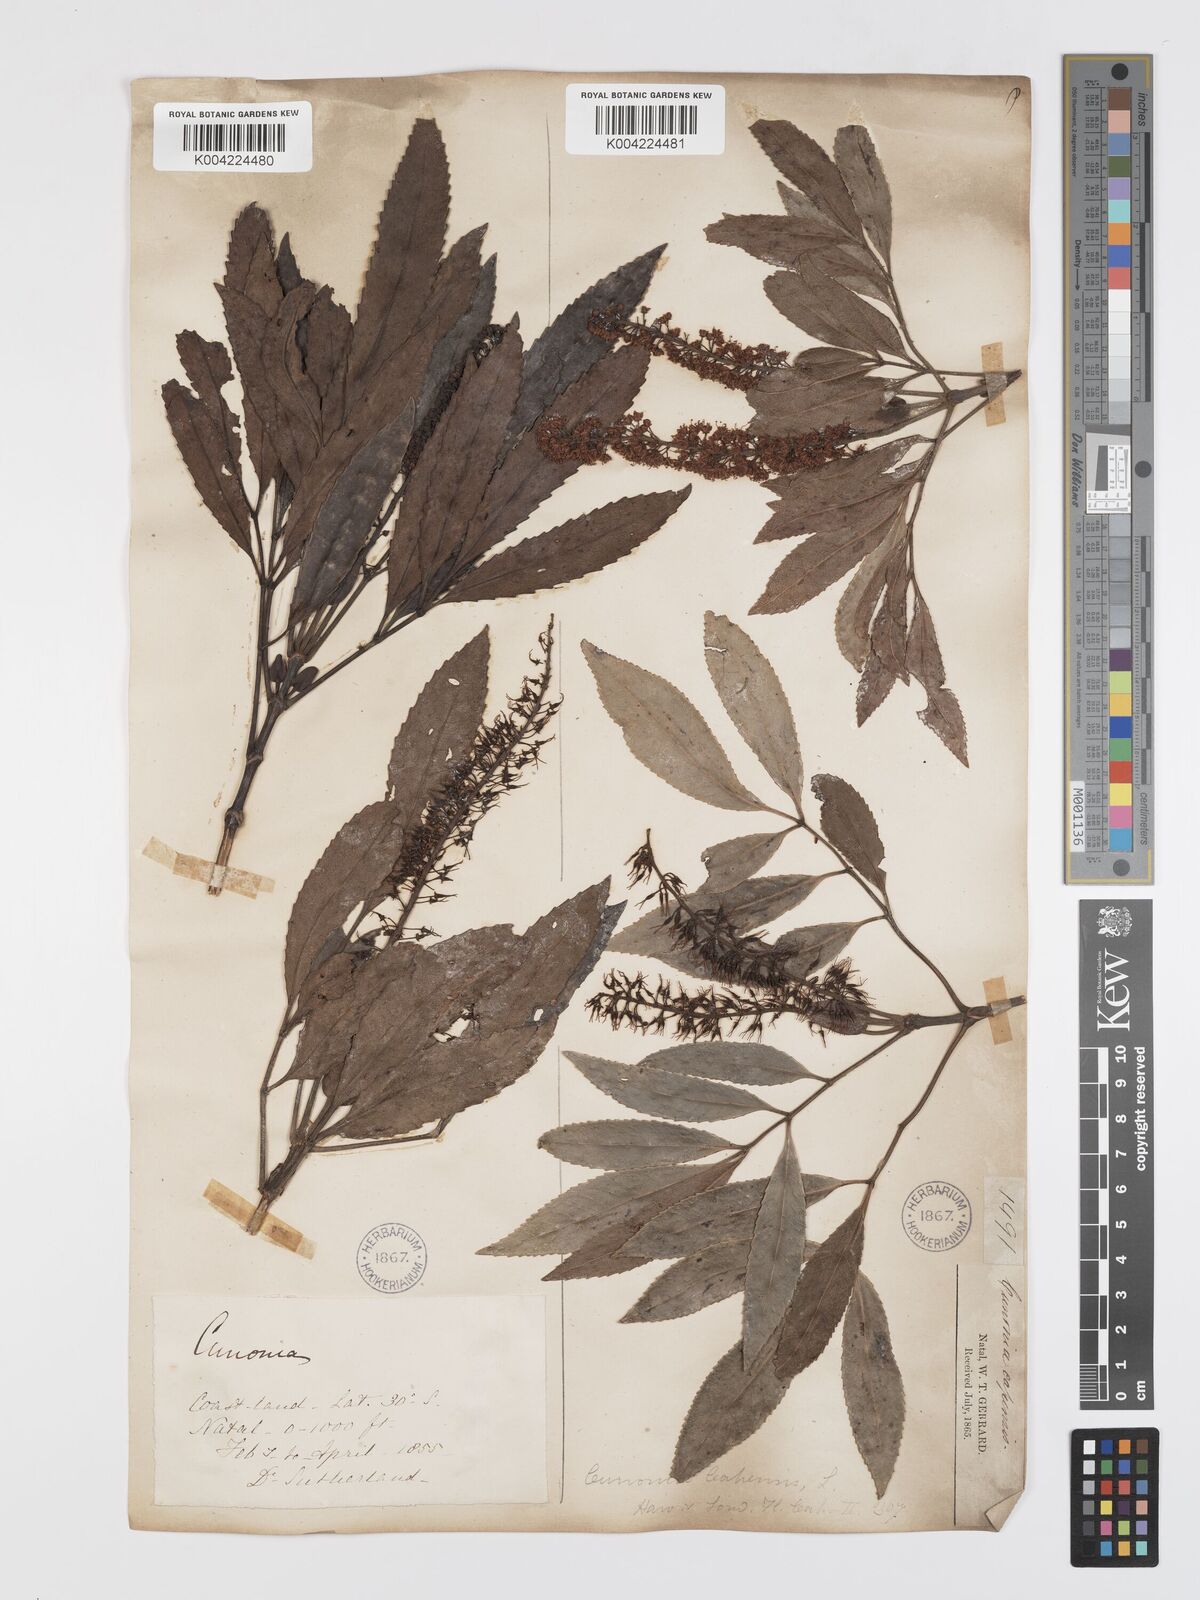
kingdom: Plantae
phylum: Tracheophyta
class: Magnoliopsida
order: Oxalidales
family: Cunoniaceae
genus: Cunonia
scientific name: Cunonia capensis
